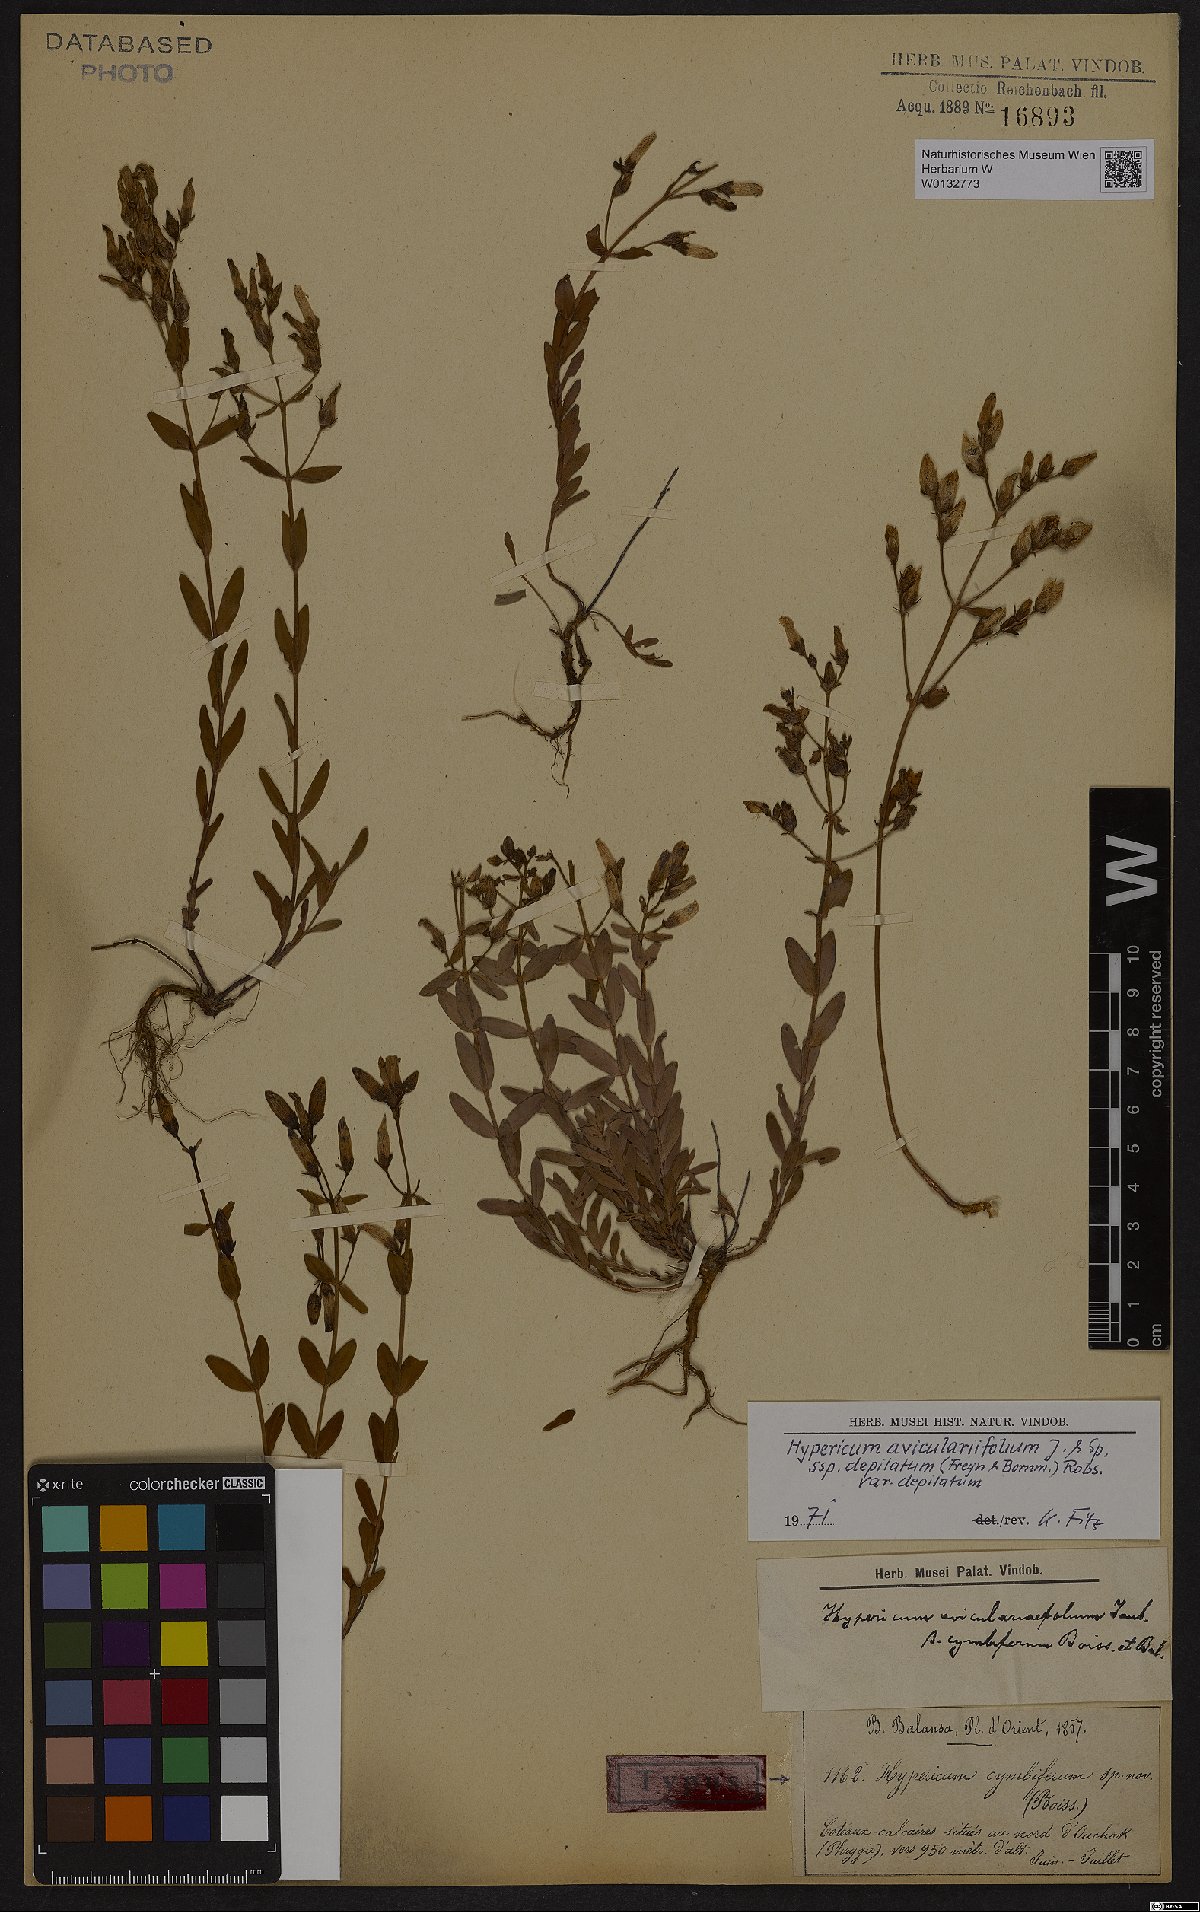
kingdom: Plantae
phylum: Tracheophyta
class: Magnoliopsida
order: Malpighiales
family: Hypericaceae
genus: Hypericum
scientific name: Hypericum orientale
